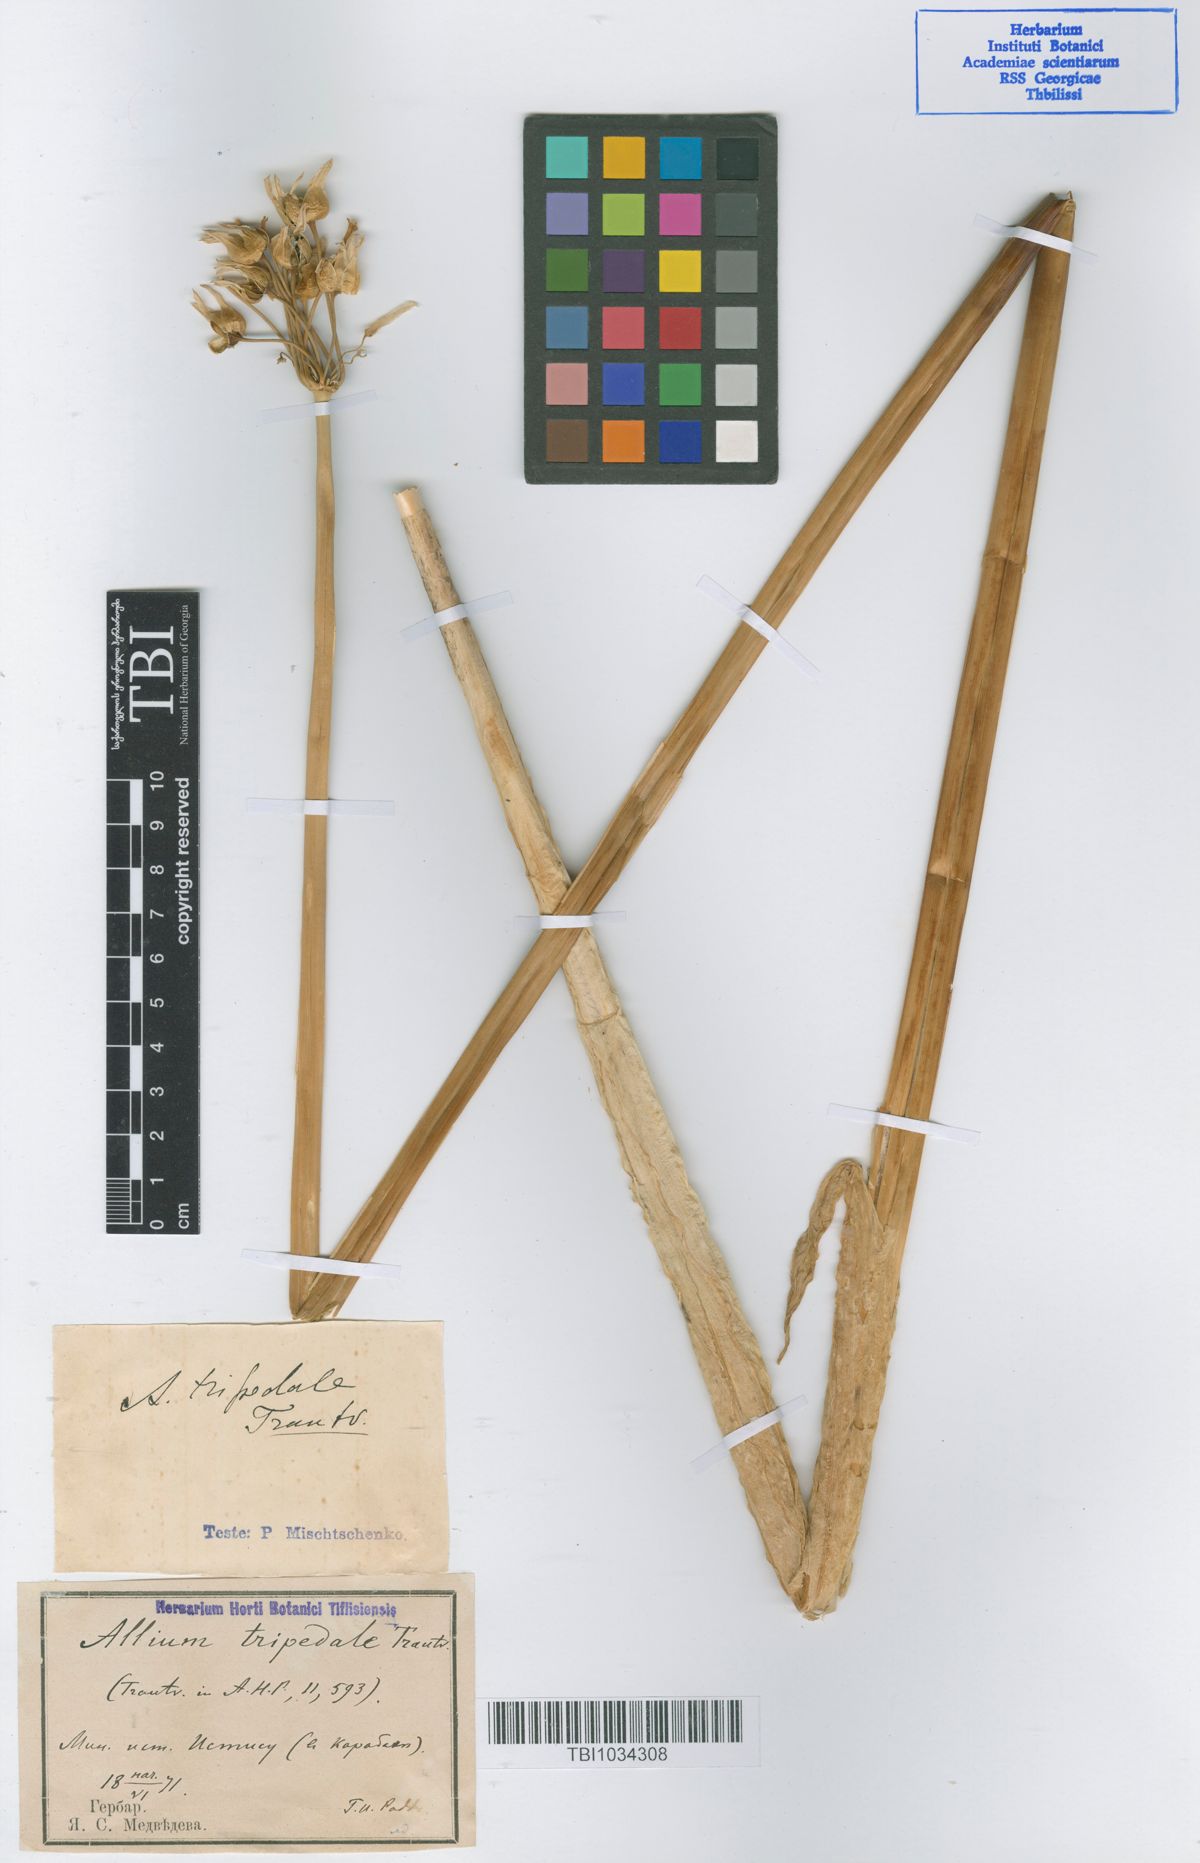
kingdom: Plantae
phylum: Tracheophyta
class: Liliopsida
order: Asparagales
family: Amaryllidaceae
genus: Allium
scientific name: Allium tripedale
